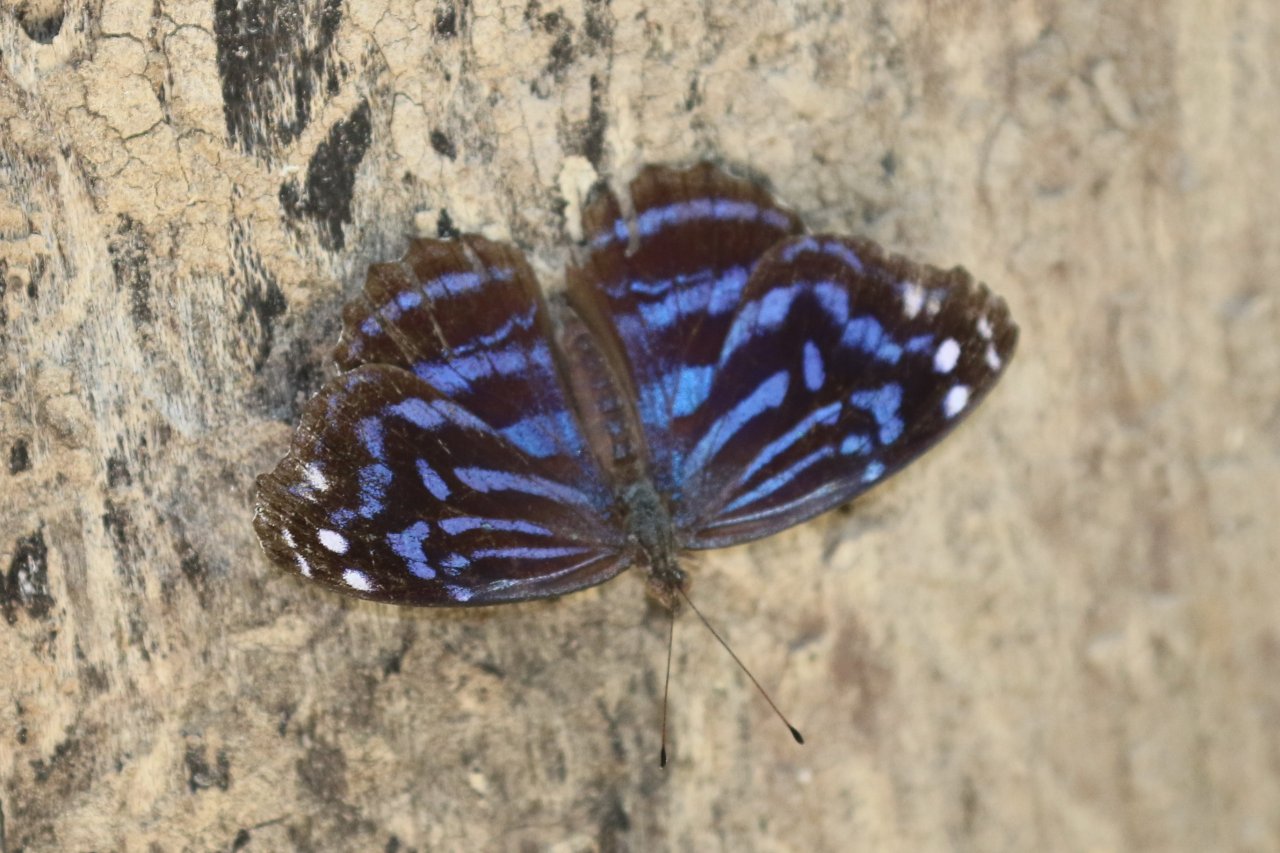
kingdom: Animalia
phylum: Arthropoda
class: Insecta
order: Lepidoptera
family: Nymphalidae
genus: Myscelia
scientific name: Myscelia ethusa
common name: Mexican Bluewing
